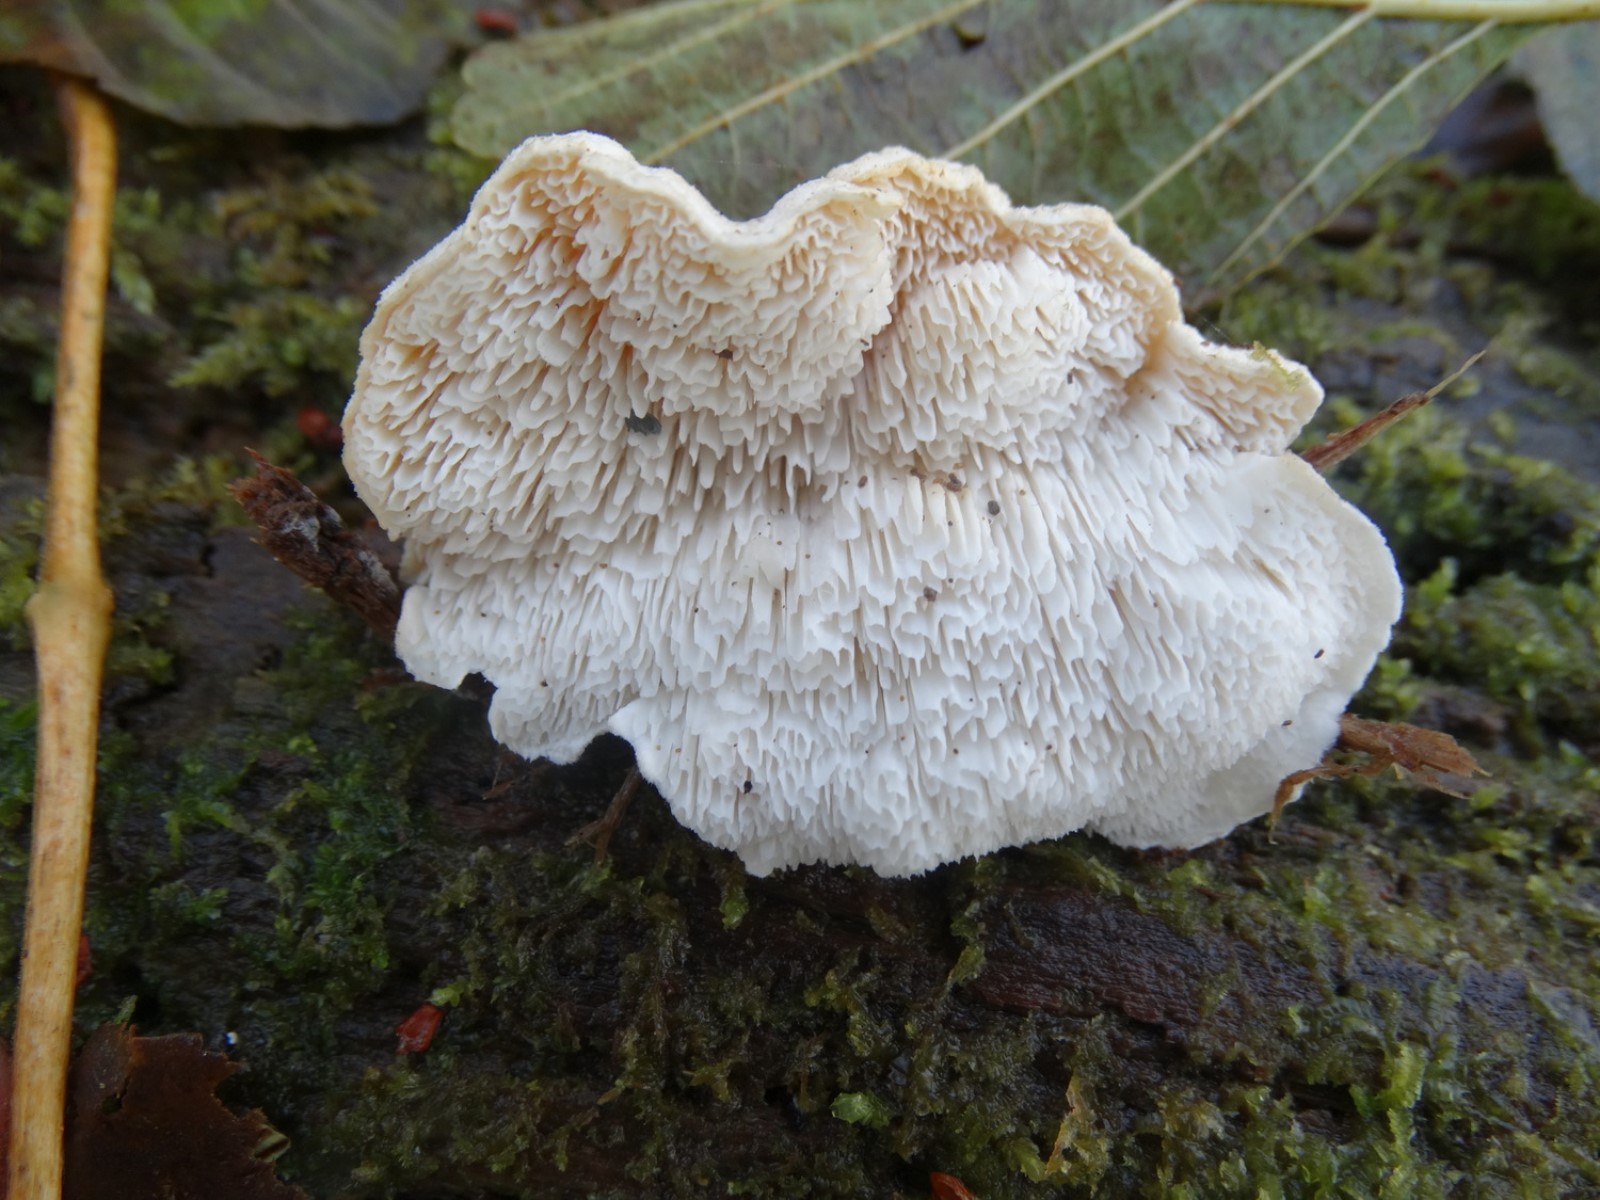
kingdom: Fungi
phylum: Basidiomycota
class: Agaricomycetes
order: Polyporales
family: Dacryobolaceae
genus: Osteina
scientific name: Osteina undosa
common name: storporet kødporesvamp
